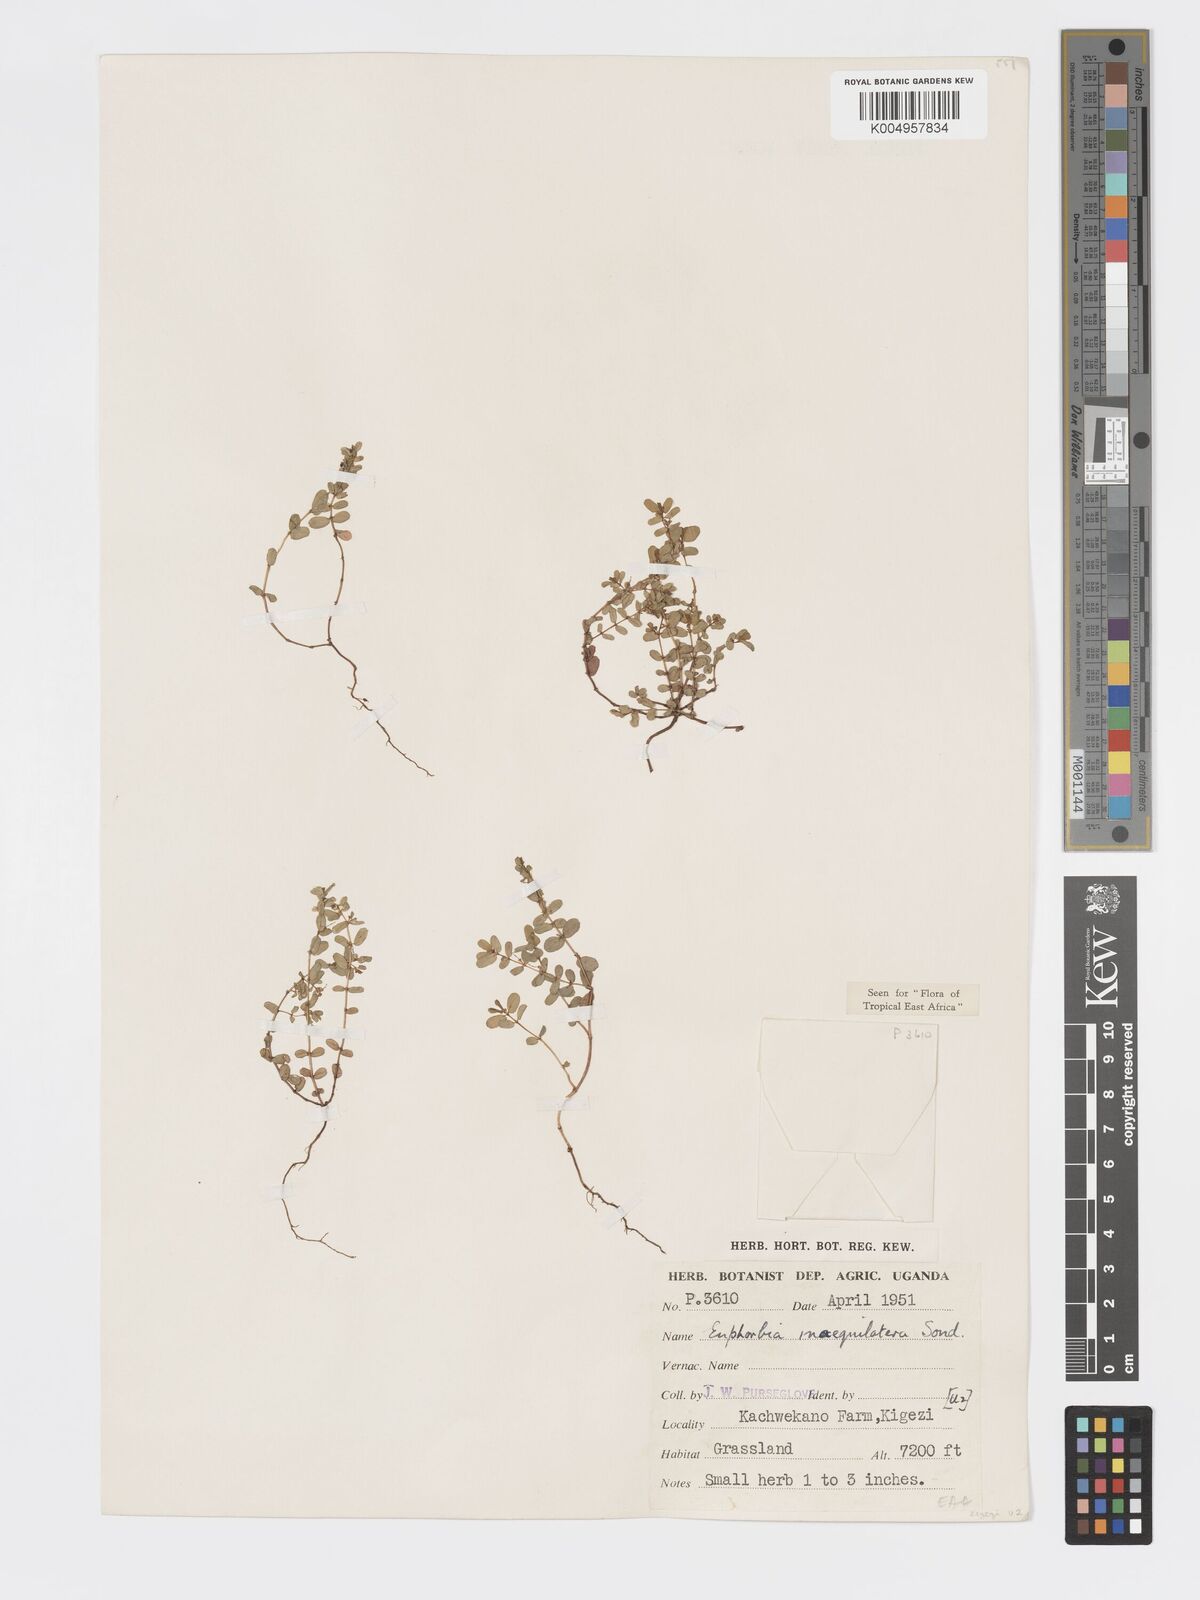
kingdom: Plantae
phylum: Tracheophyta
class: Magnoliopsida
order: Malpighiales
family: Euphorbiaceae
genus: Euphorbia
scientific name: Euphorbia inaequilatera
